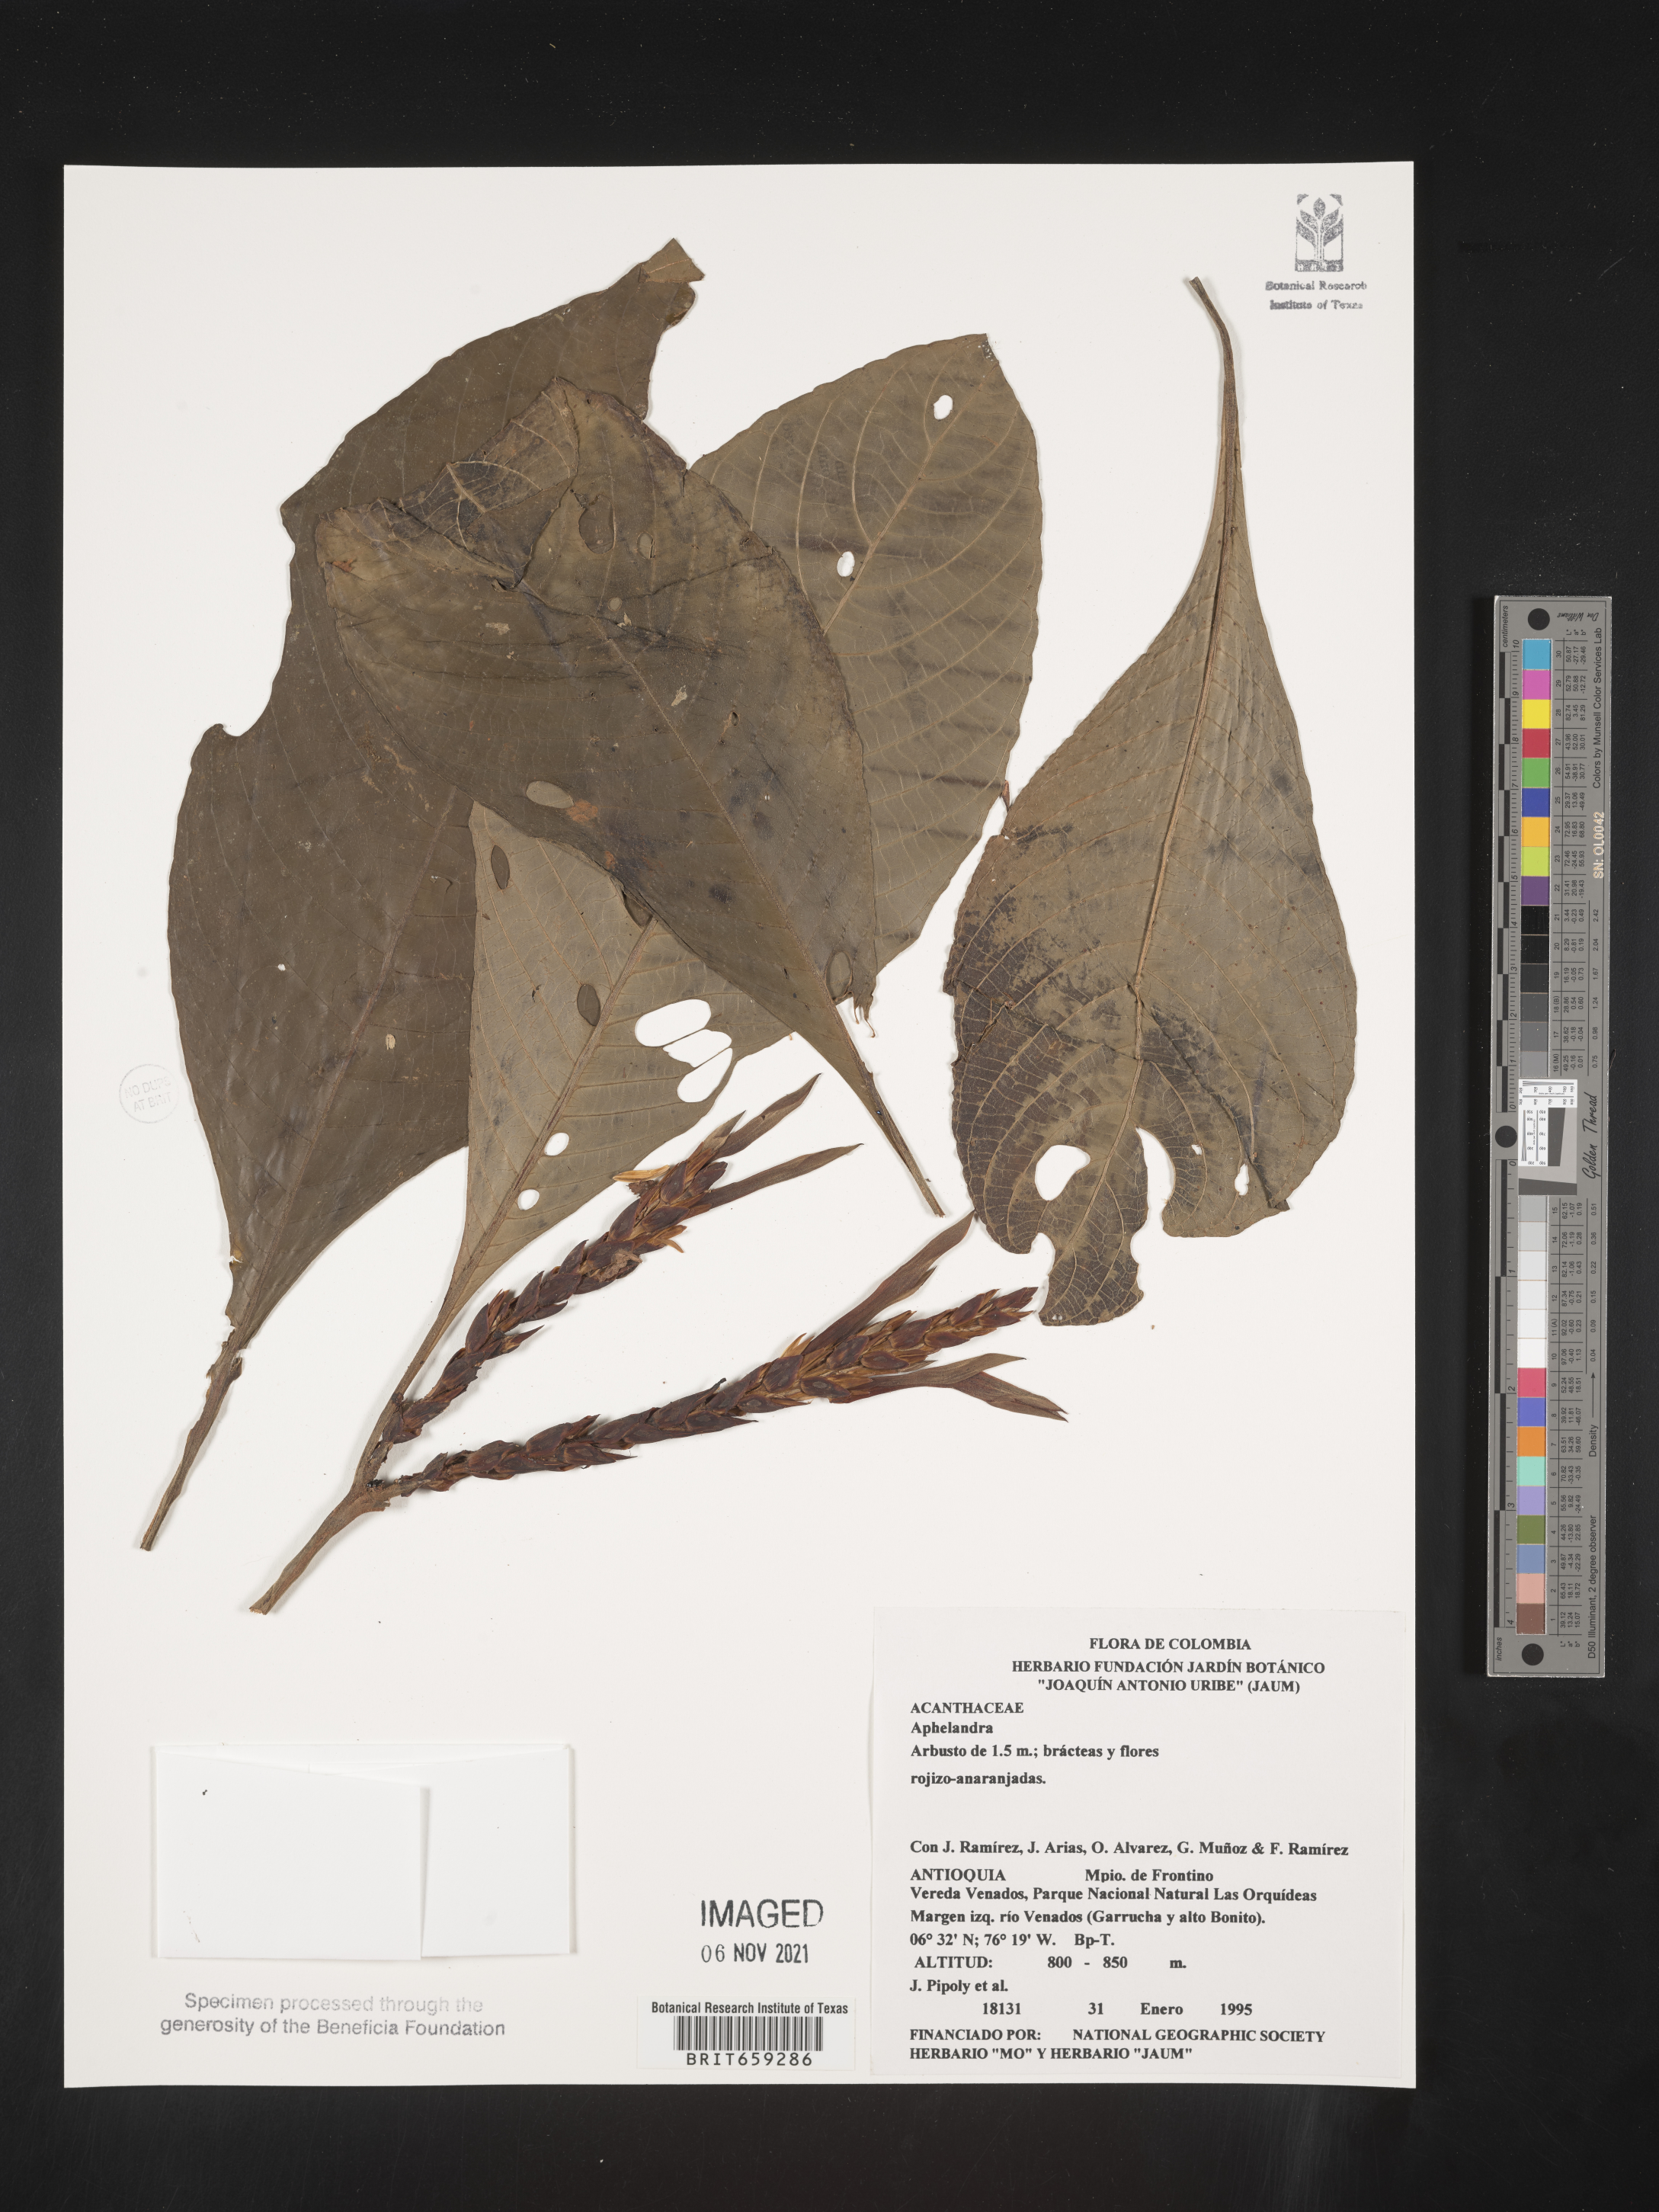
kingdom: Plantae
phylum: Tracheophyta
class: Magnoliopsida
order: Lamiales
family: Acanthaceae
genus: Aphelandra
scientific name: Aphelandra
